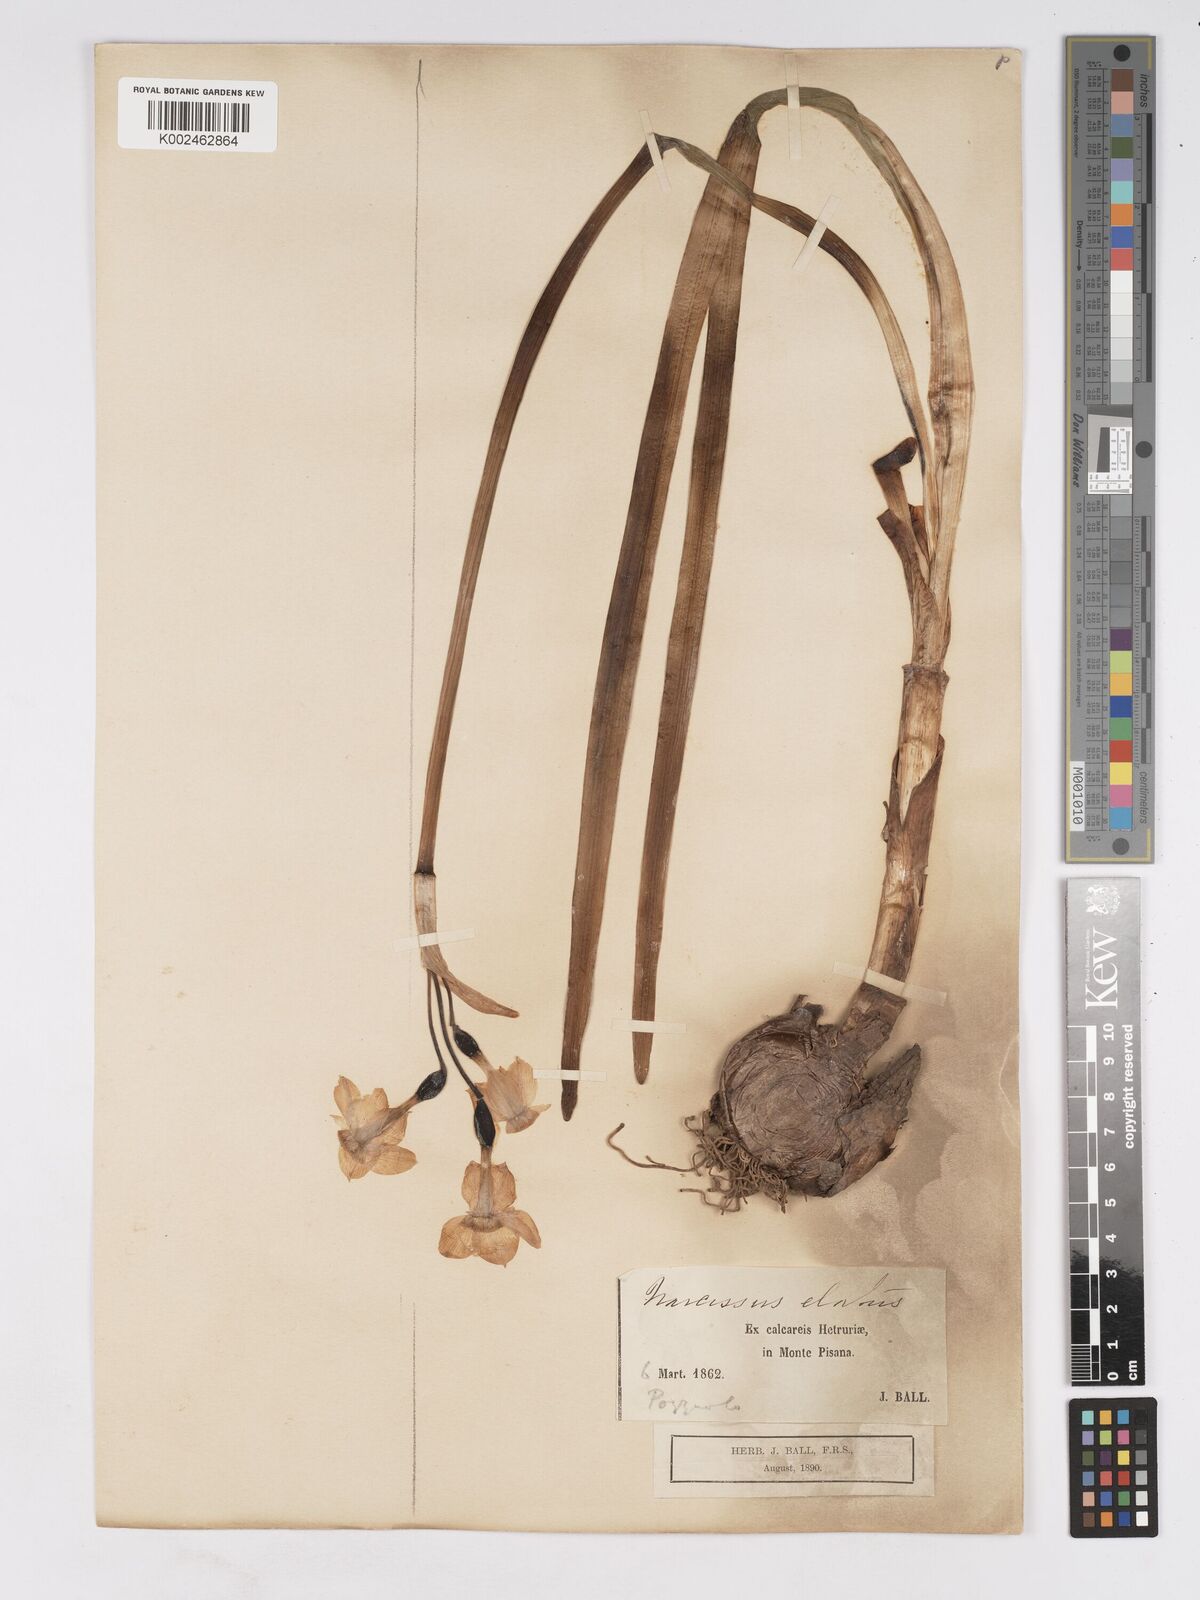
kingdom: Plantae
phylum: Tracheophyta
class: Liliopsida
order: Asparagales
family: Amaryllidaceae
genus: Narcissus
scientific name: Narcissus tazetta
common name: Bunch-flowered daffodil
